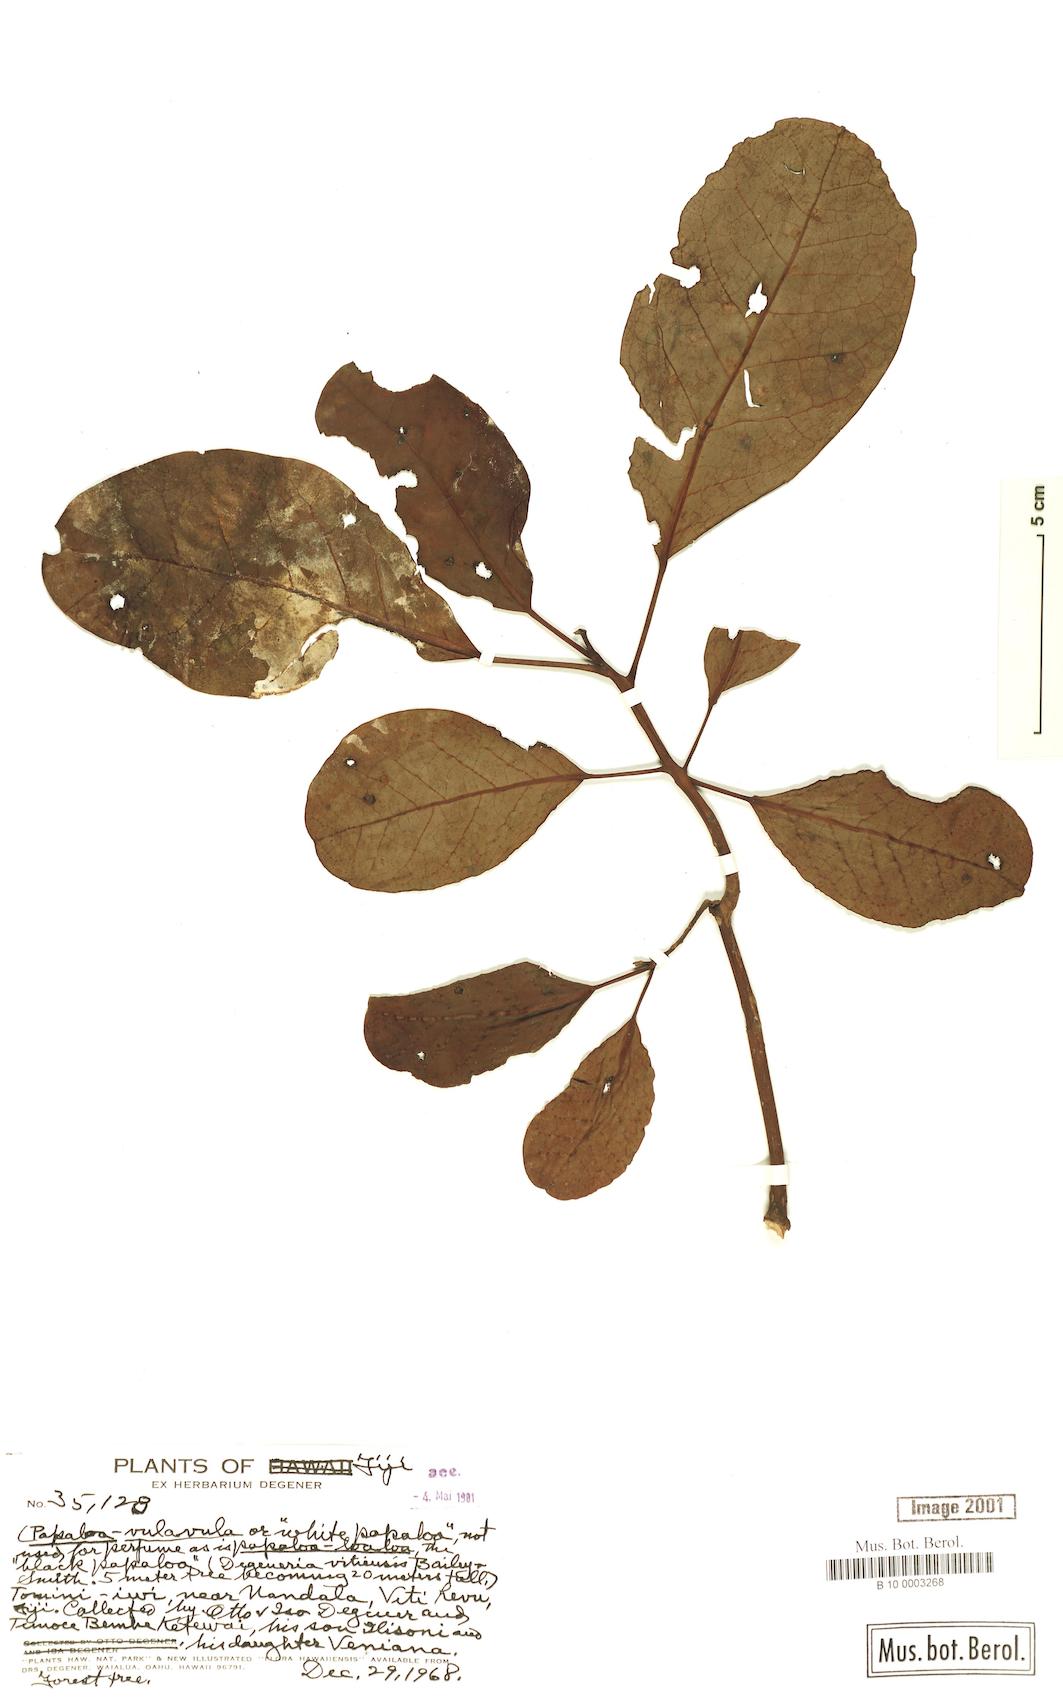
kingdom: Plantae
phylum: Tracheophyta
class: Magnoliopsida
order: Magnoliales
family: Degeneriaceae
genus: Degeneria
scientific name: Degeneria vitiensis
